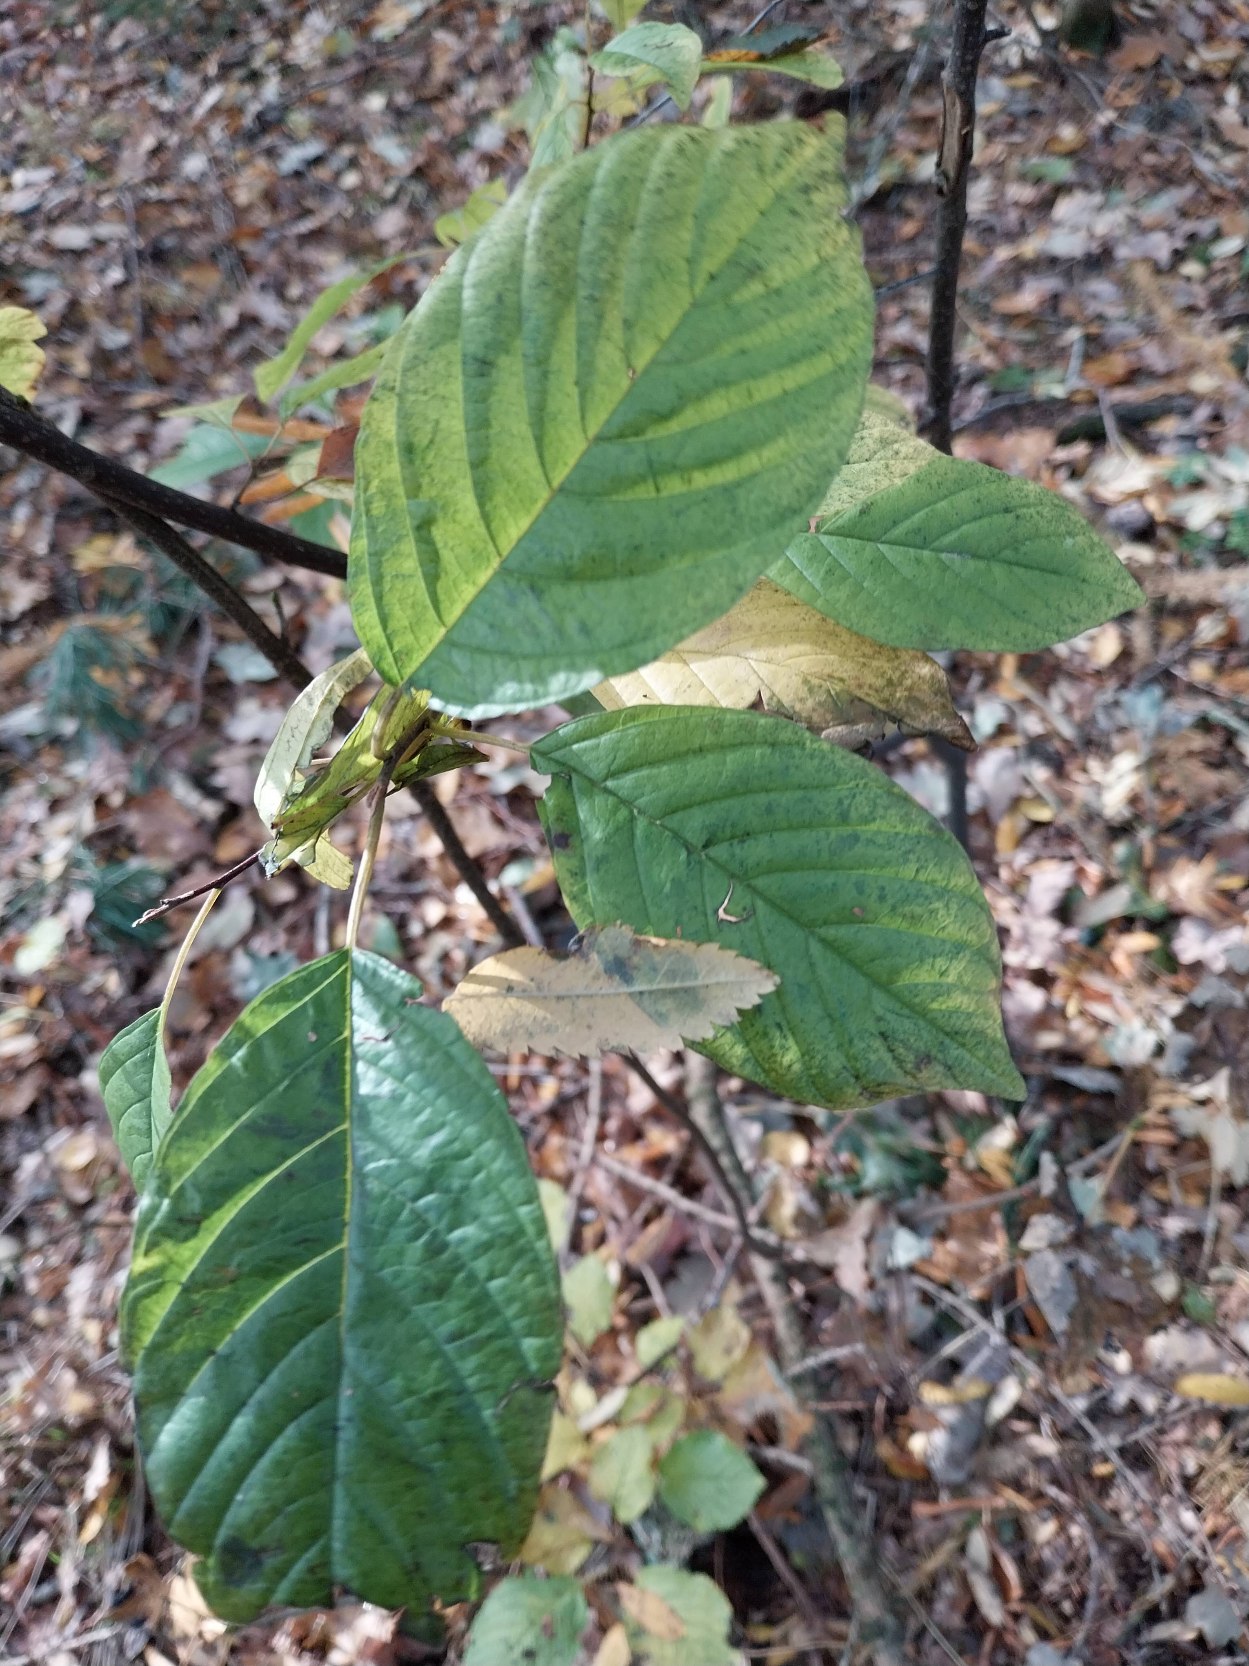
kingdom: Plantae
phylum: Tracheophyta
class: Magnoliopsida
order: Rosales
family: Rhamnaceae
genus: Frangula
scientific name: Frangula alnus
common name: Tørst
